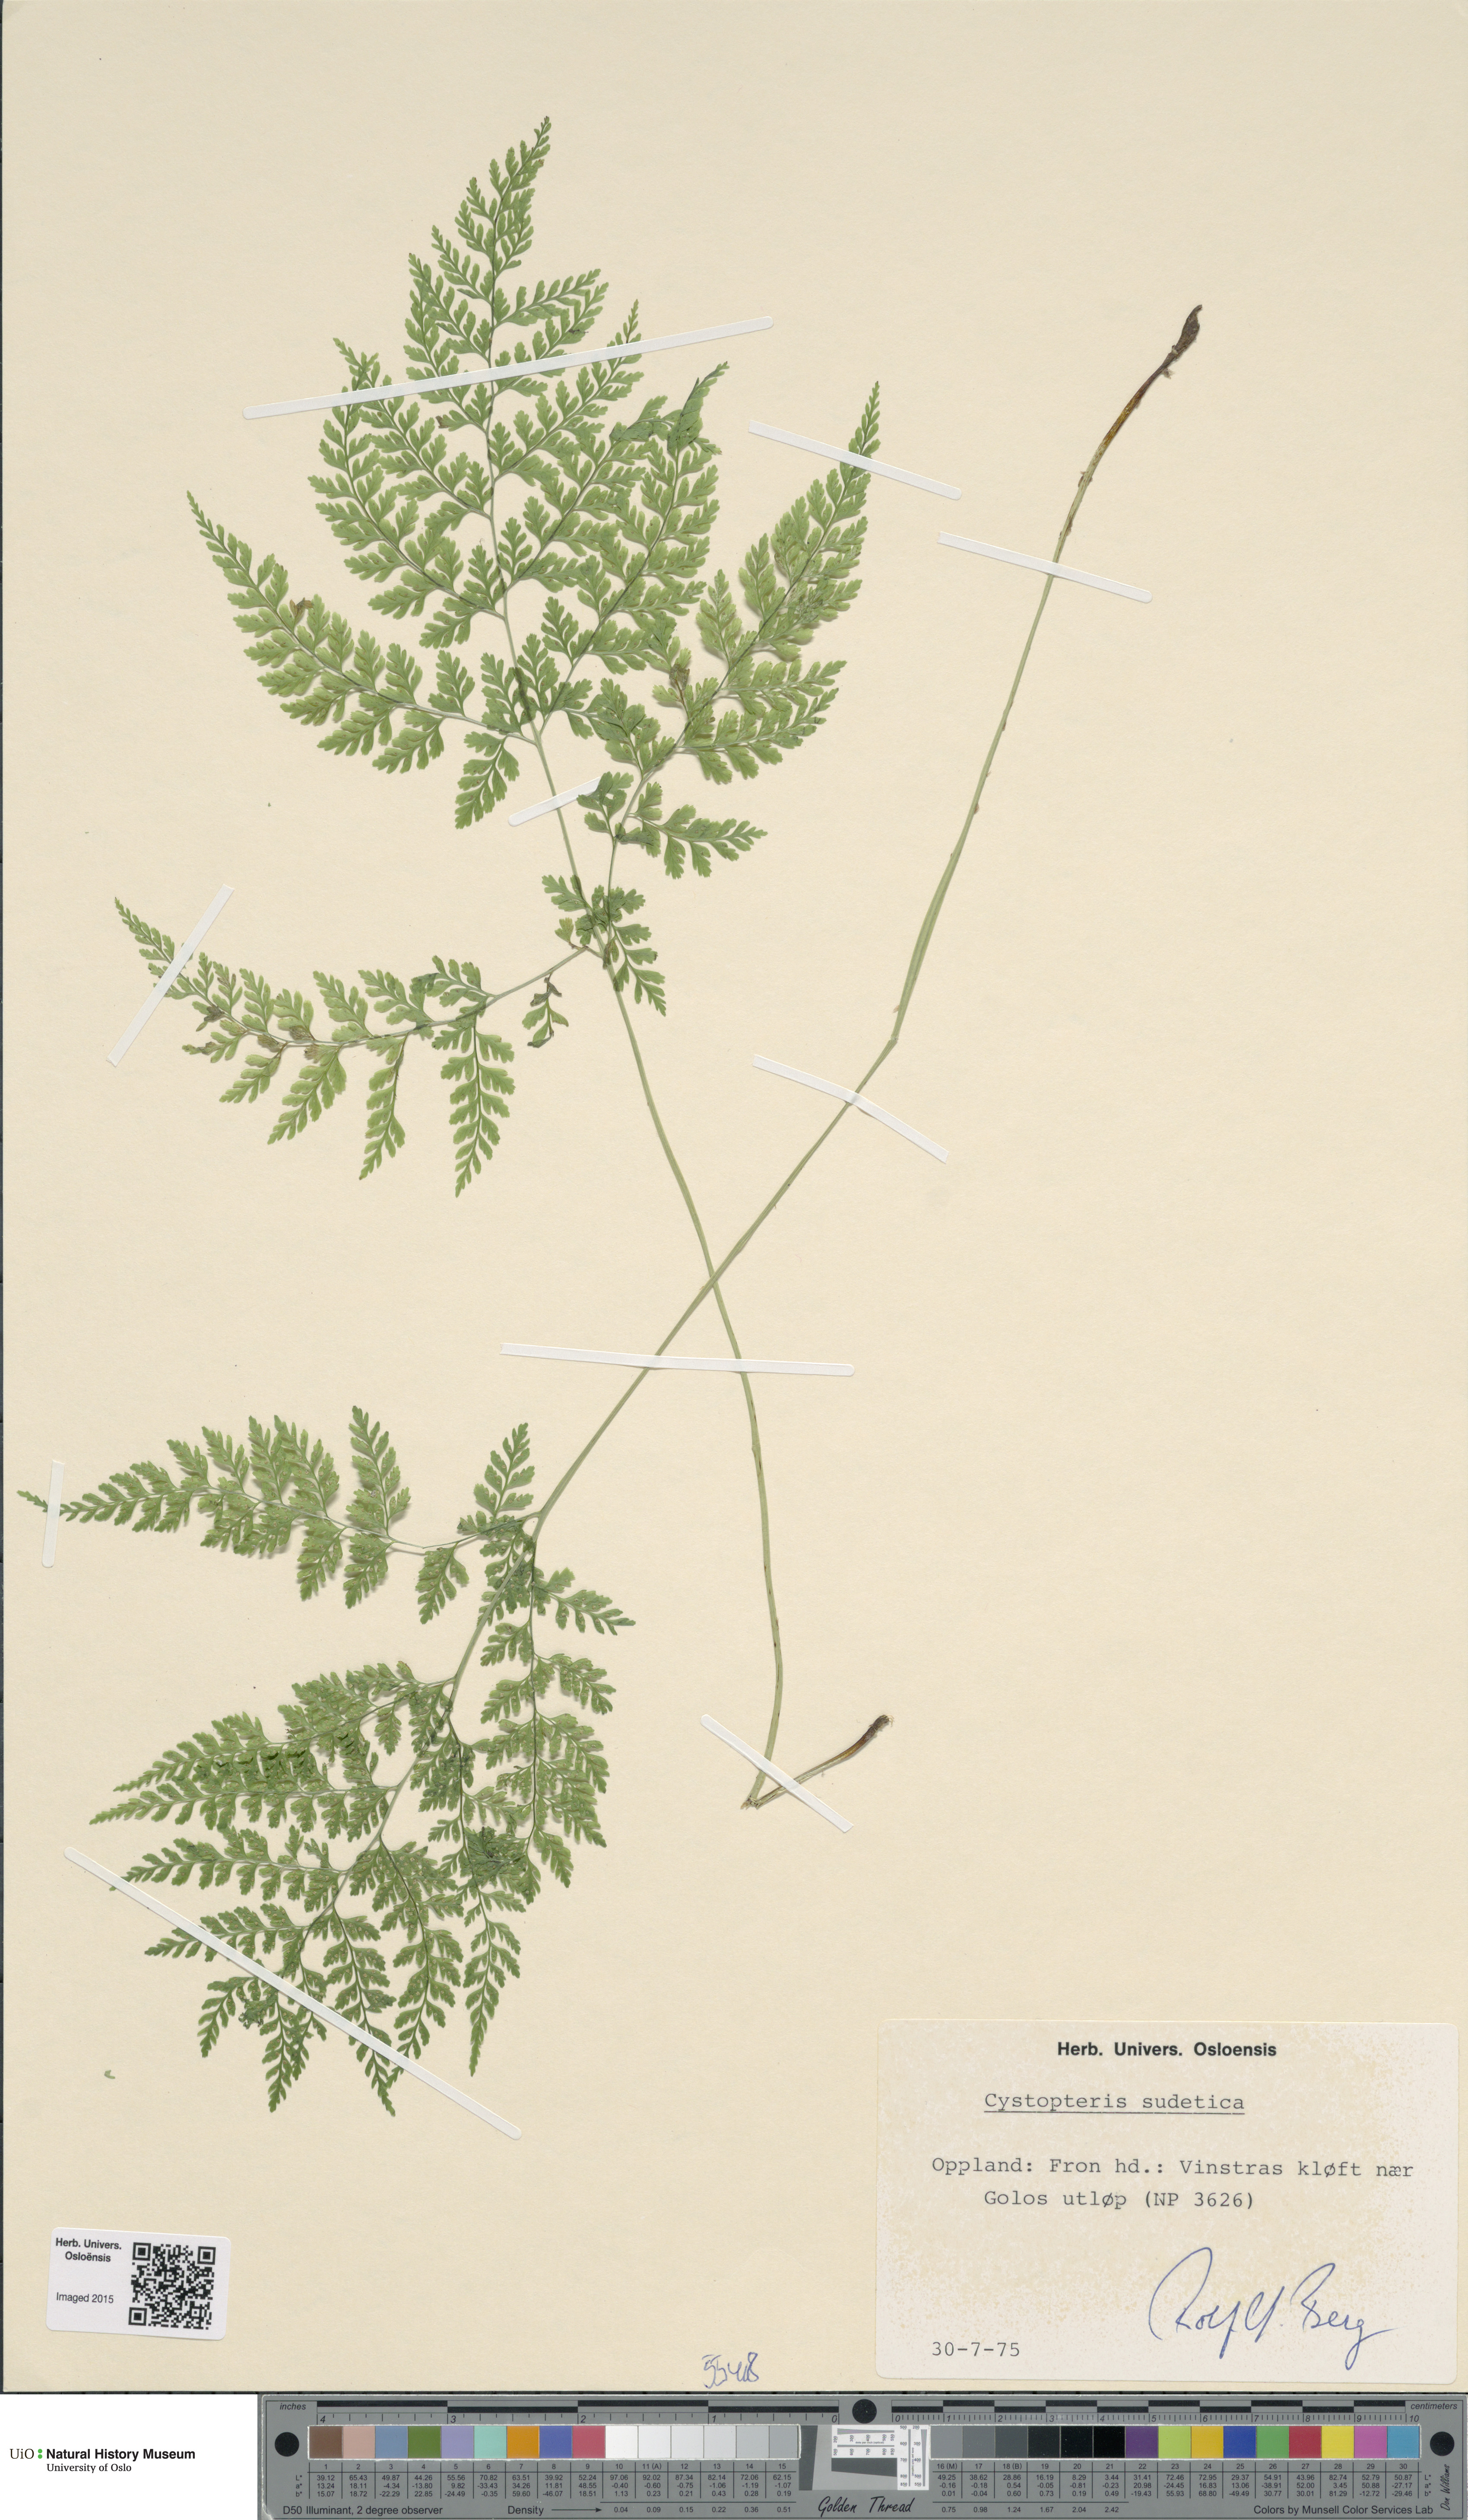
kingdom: Plantae
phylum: Tracheophyta
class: Polypodiopsida
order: Polypodiales
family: Cystopteridaceae
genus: Cystopteris
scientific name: Cystopteris sudetica
